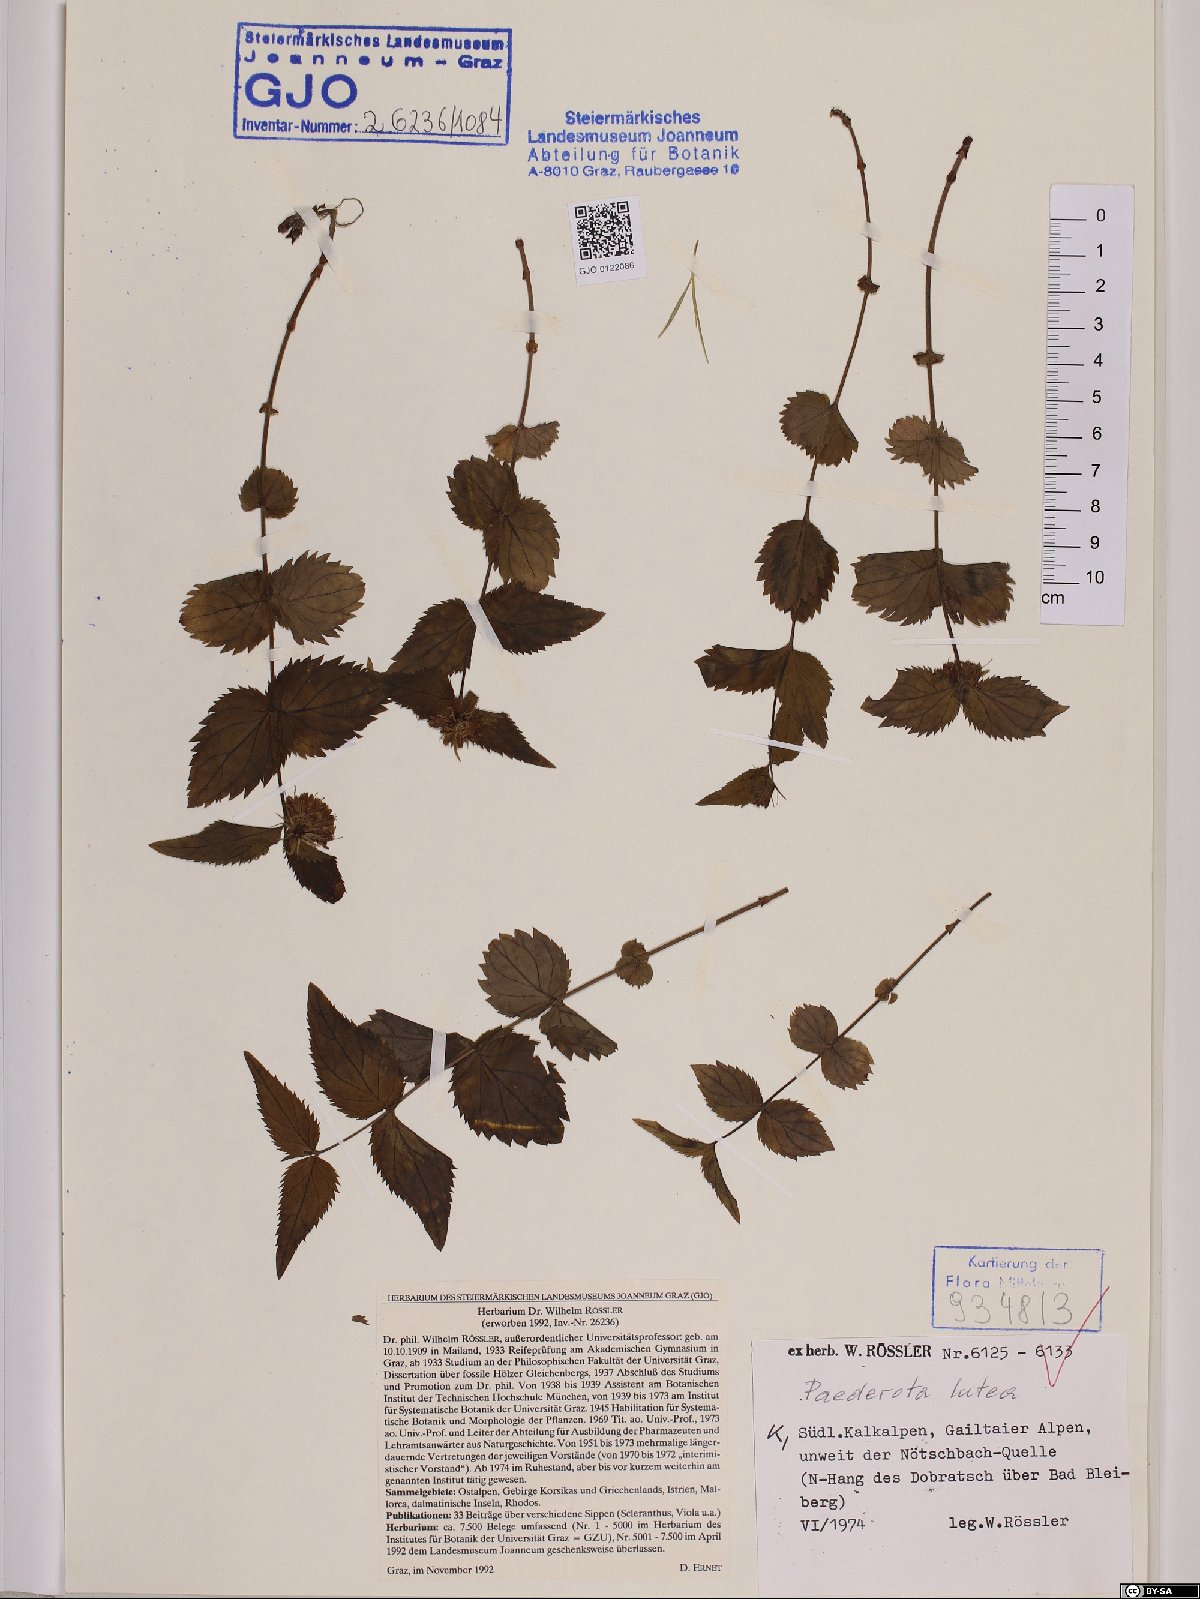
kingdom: Plantae
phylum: Tracheophyta
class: Magnoliopsida
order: Lamiales
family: Plantaginaceae
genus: Paederota
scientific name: Paederota lutea
